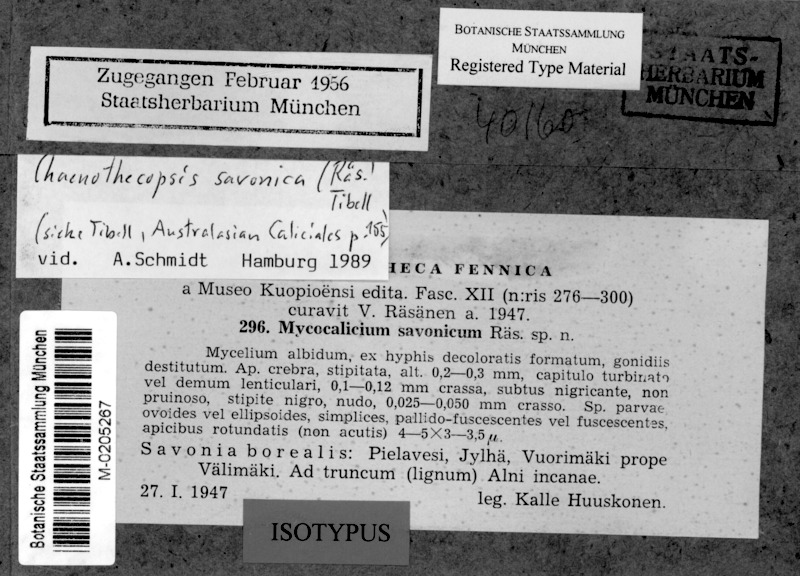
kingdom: Fungi
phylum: Ascomycota
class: Eurotiomycetes
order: Mycocaliciales
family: Mycocaliciaceae
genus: Chaenothecopsis
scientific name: Chaenothecopsis savonica
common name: Least pin lichen
